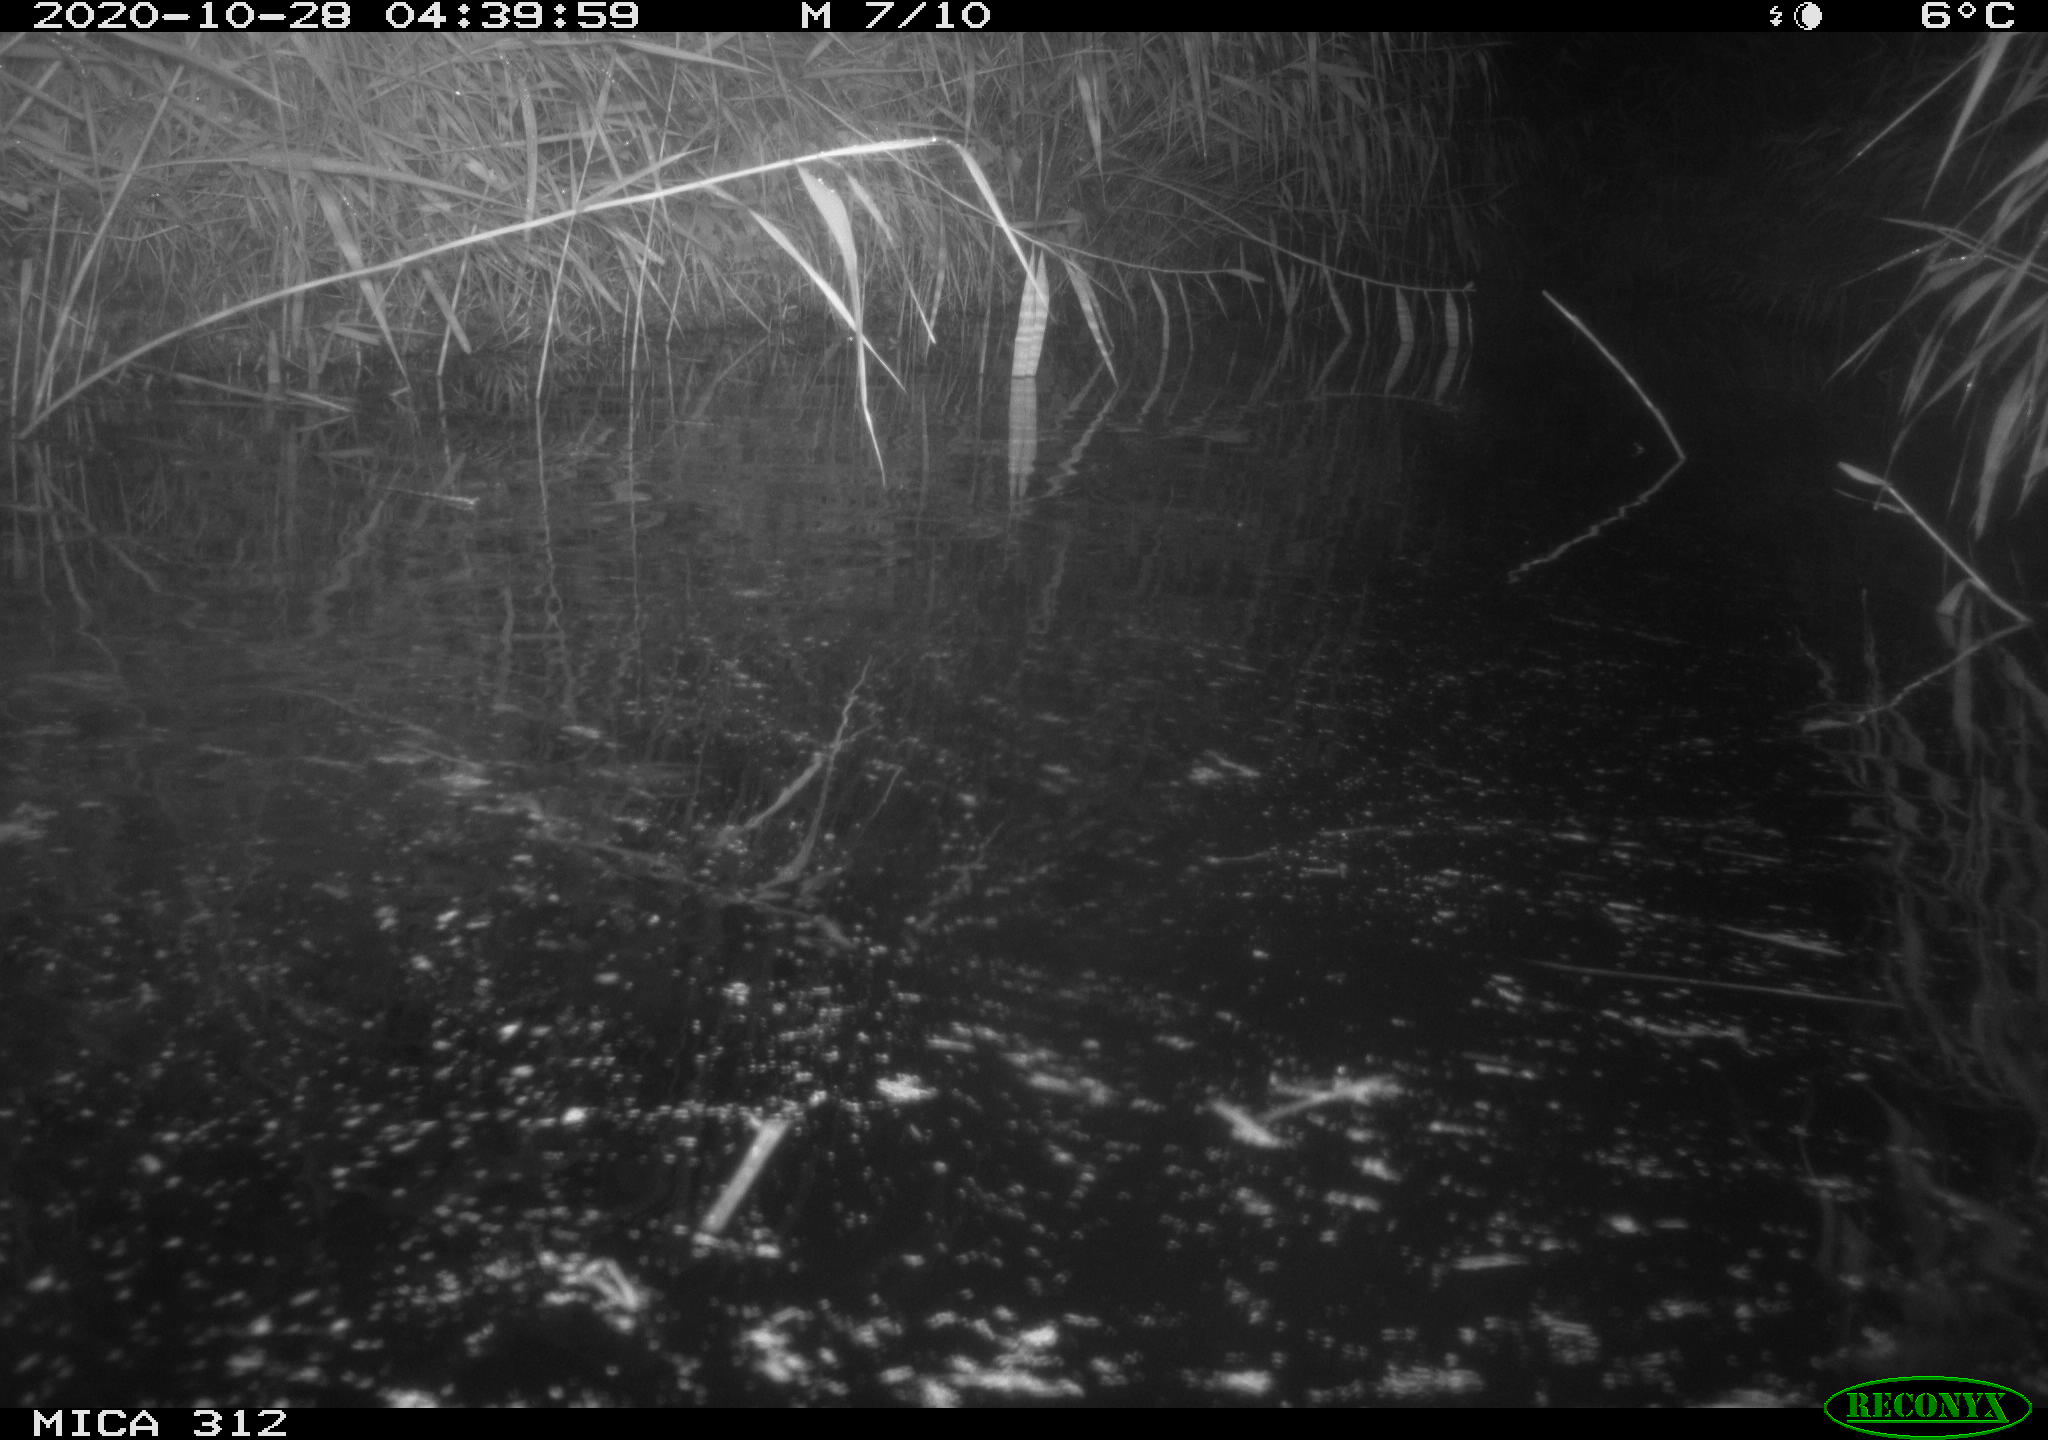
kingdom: Animalia
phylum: Chordata
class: Mammalia
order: Rodentia
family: Muridae
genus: Rattus
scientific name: Rattus norvegicus
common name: Brown rat
